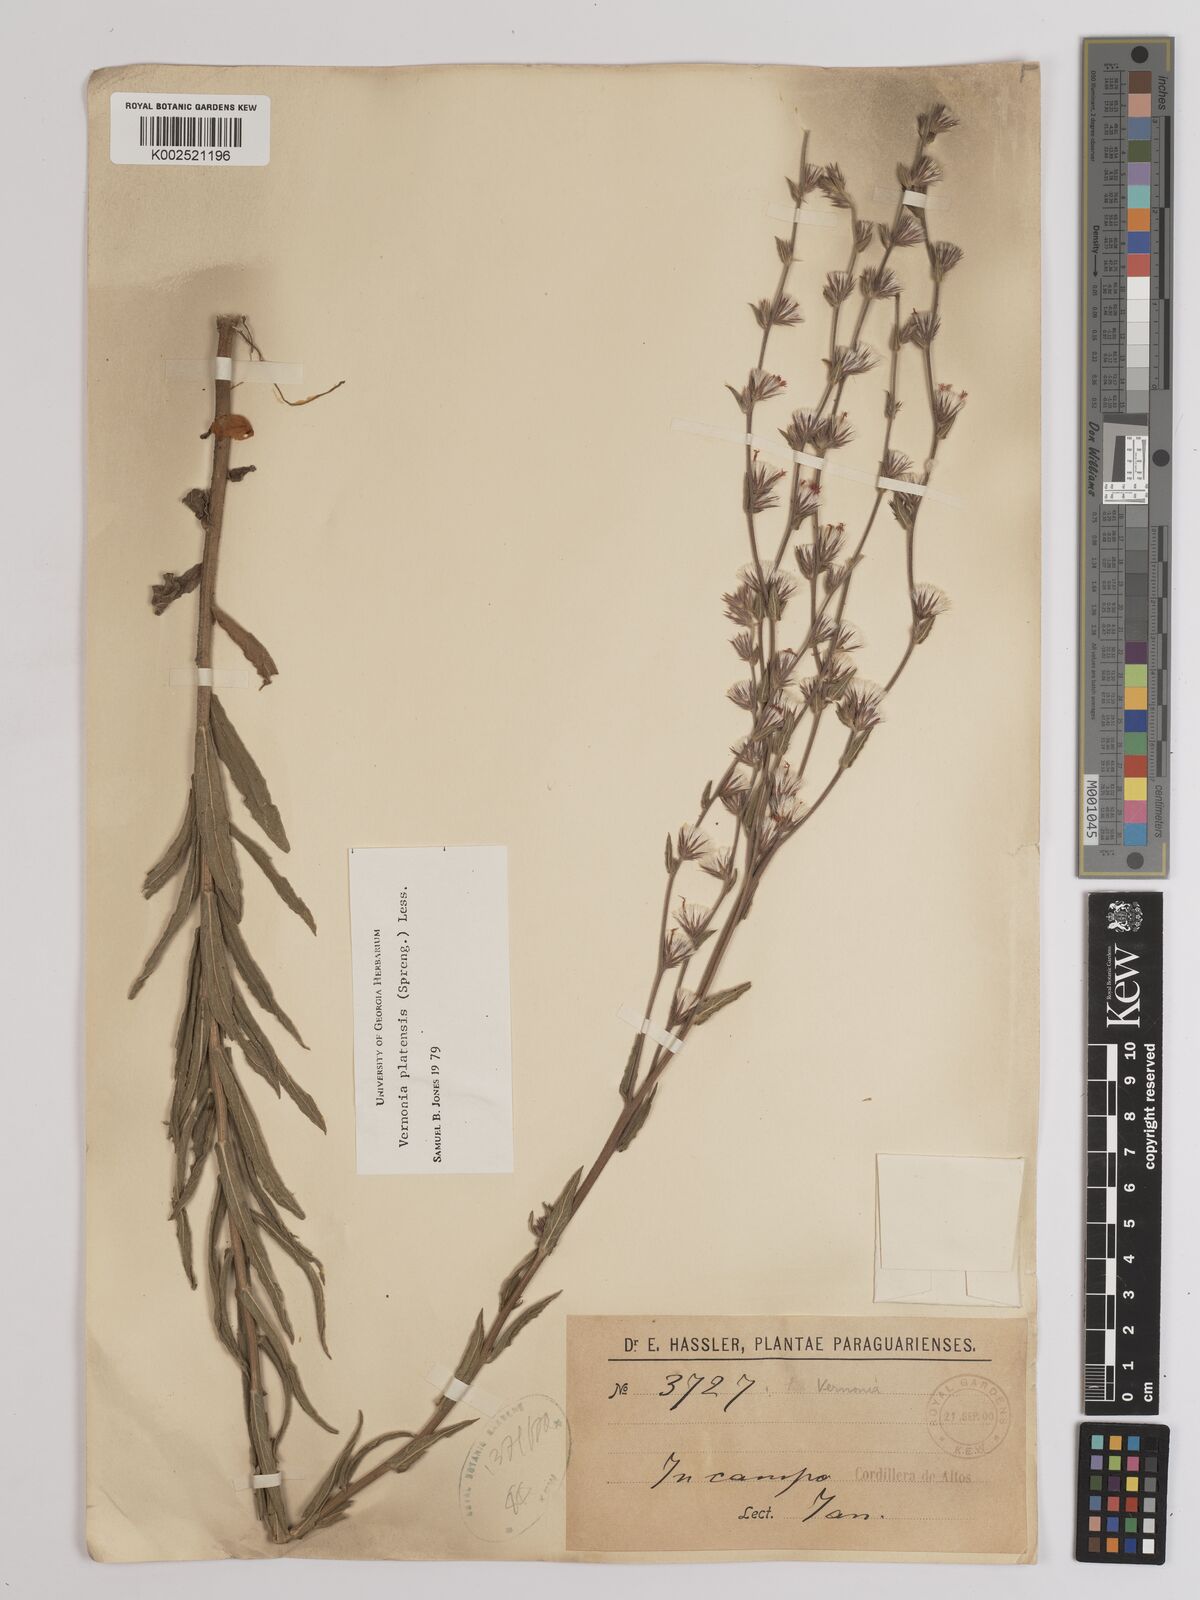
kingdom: Plantae
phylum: Tracheophyta
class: Magnoliopsida
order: Asterales
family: Asteraceae
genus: Chrysolaena
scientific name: Chrysolaena platensis
